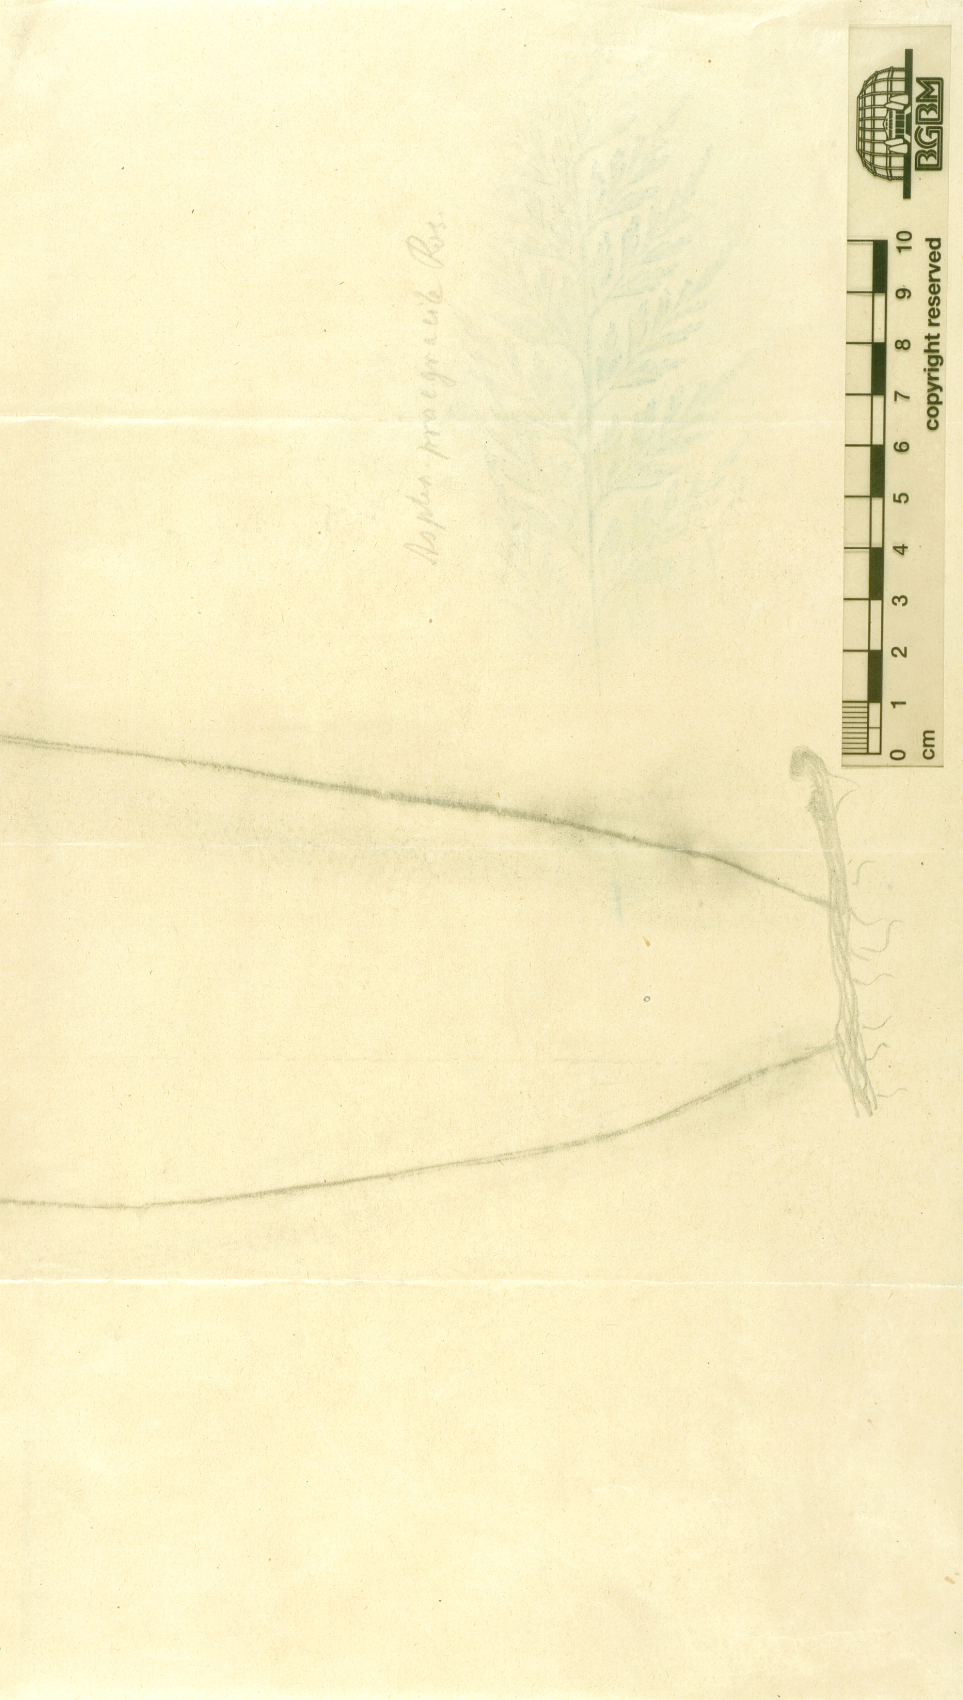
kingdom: Plantae
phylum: Tracheophyta
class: Polypodiopsida
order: Polypodiales
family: Aspleniaceae
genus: Asplenium
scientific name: Asplenium praegracile
